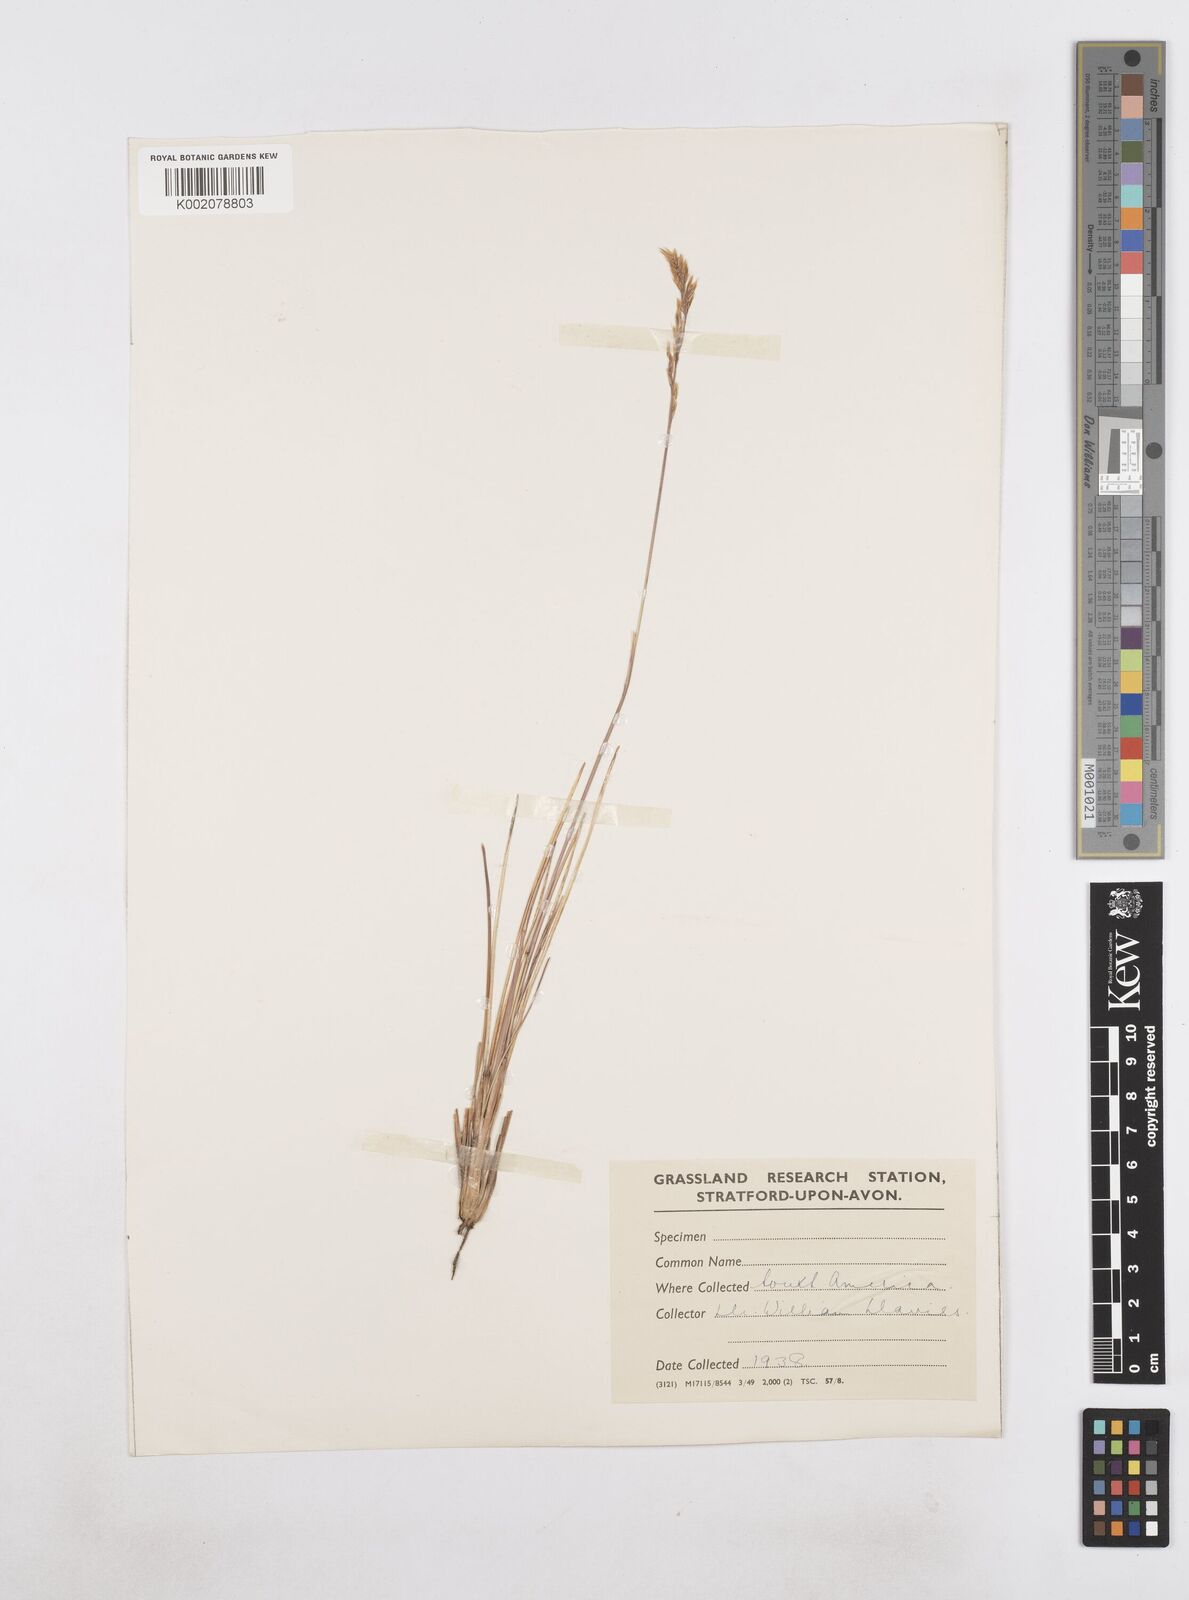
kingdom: Plantae
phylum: Tracheophyta
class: Liliopsida
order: Poales
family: Poaceae
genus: Poa
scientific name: Poa
